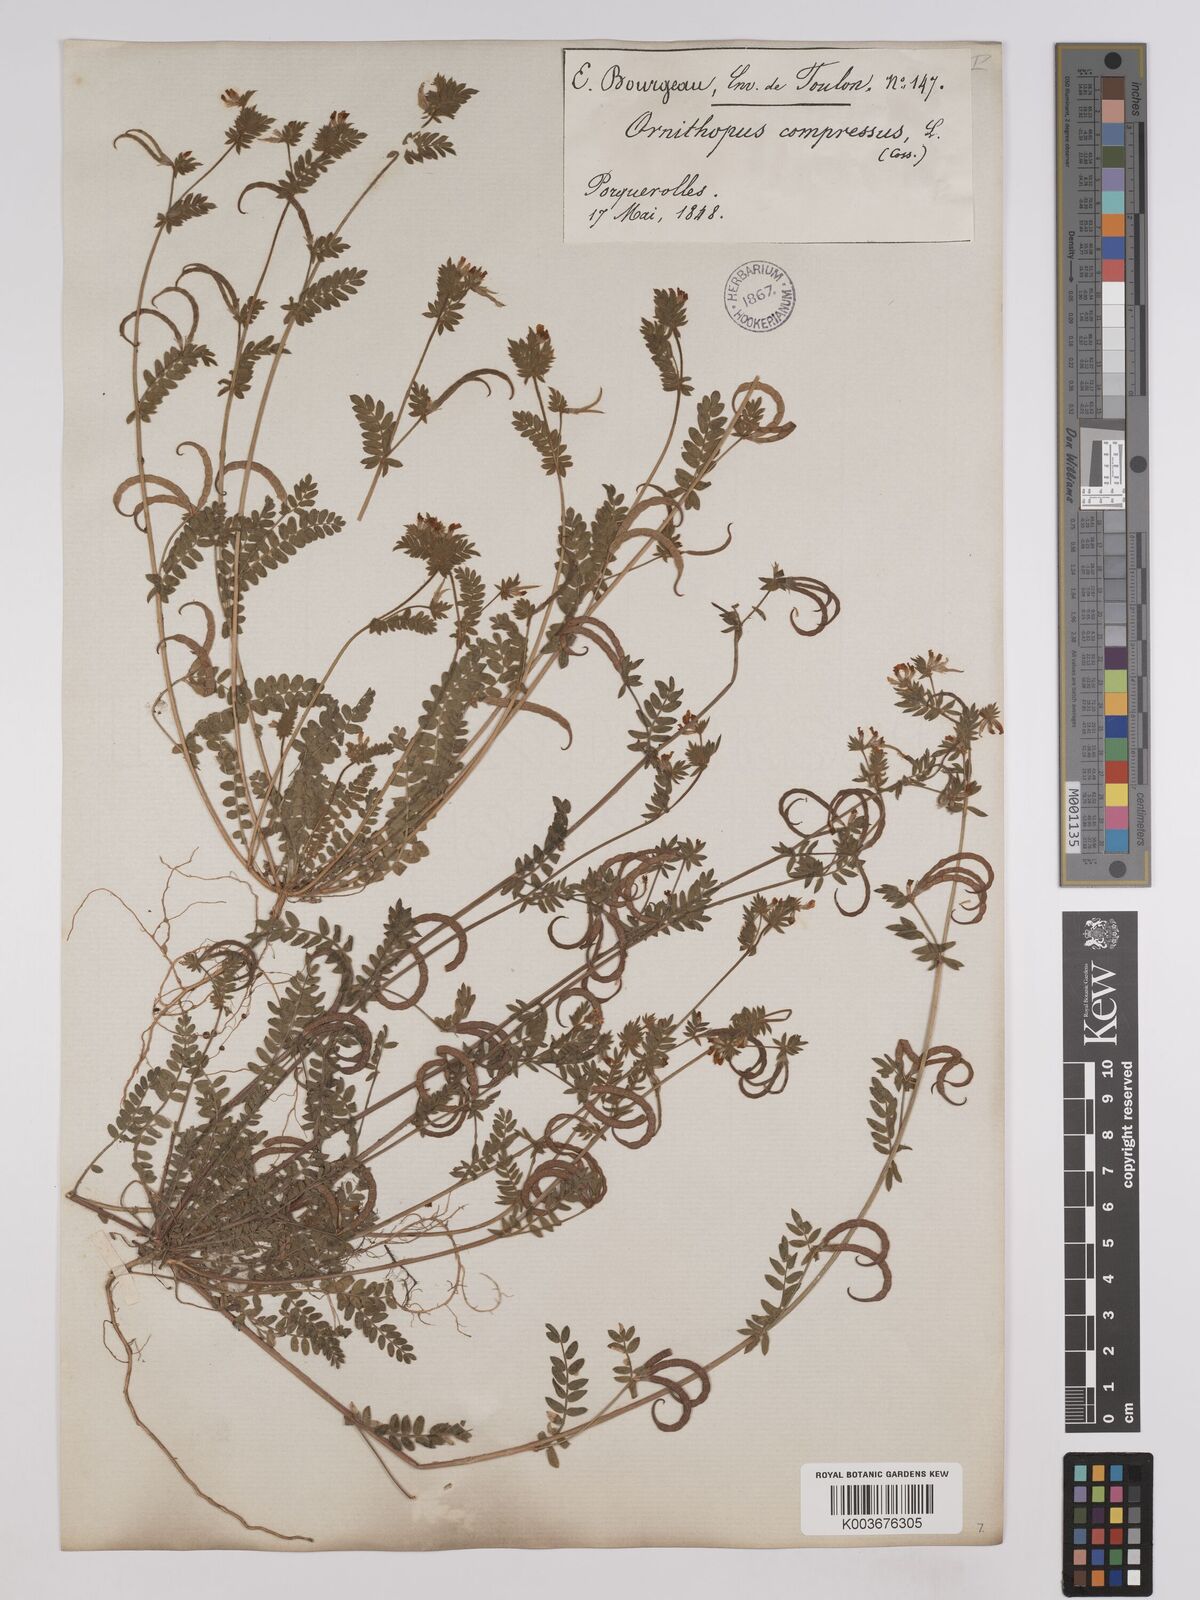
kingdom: Plantae
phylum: Tracheophyta
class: Magnoliopsida
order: Fabales
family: Fabaceae
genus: Ornithopus
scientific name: Ornithopus compressus
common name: Yellow serradella
